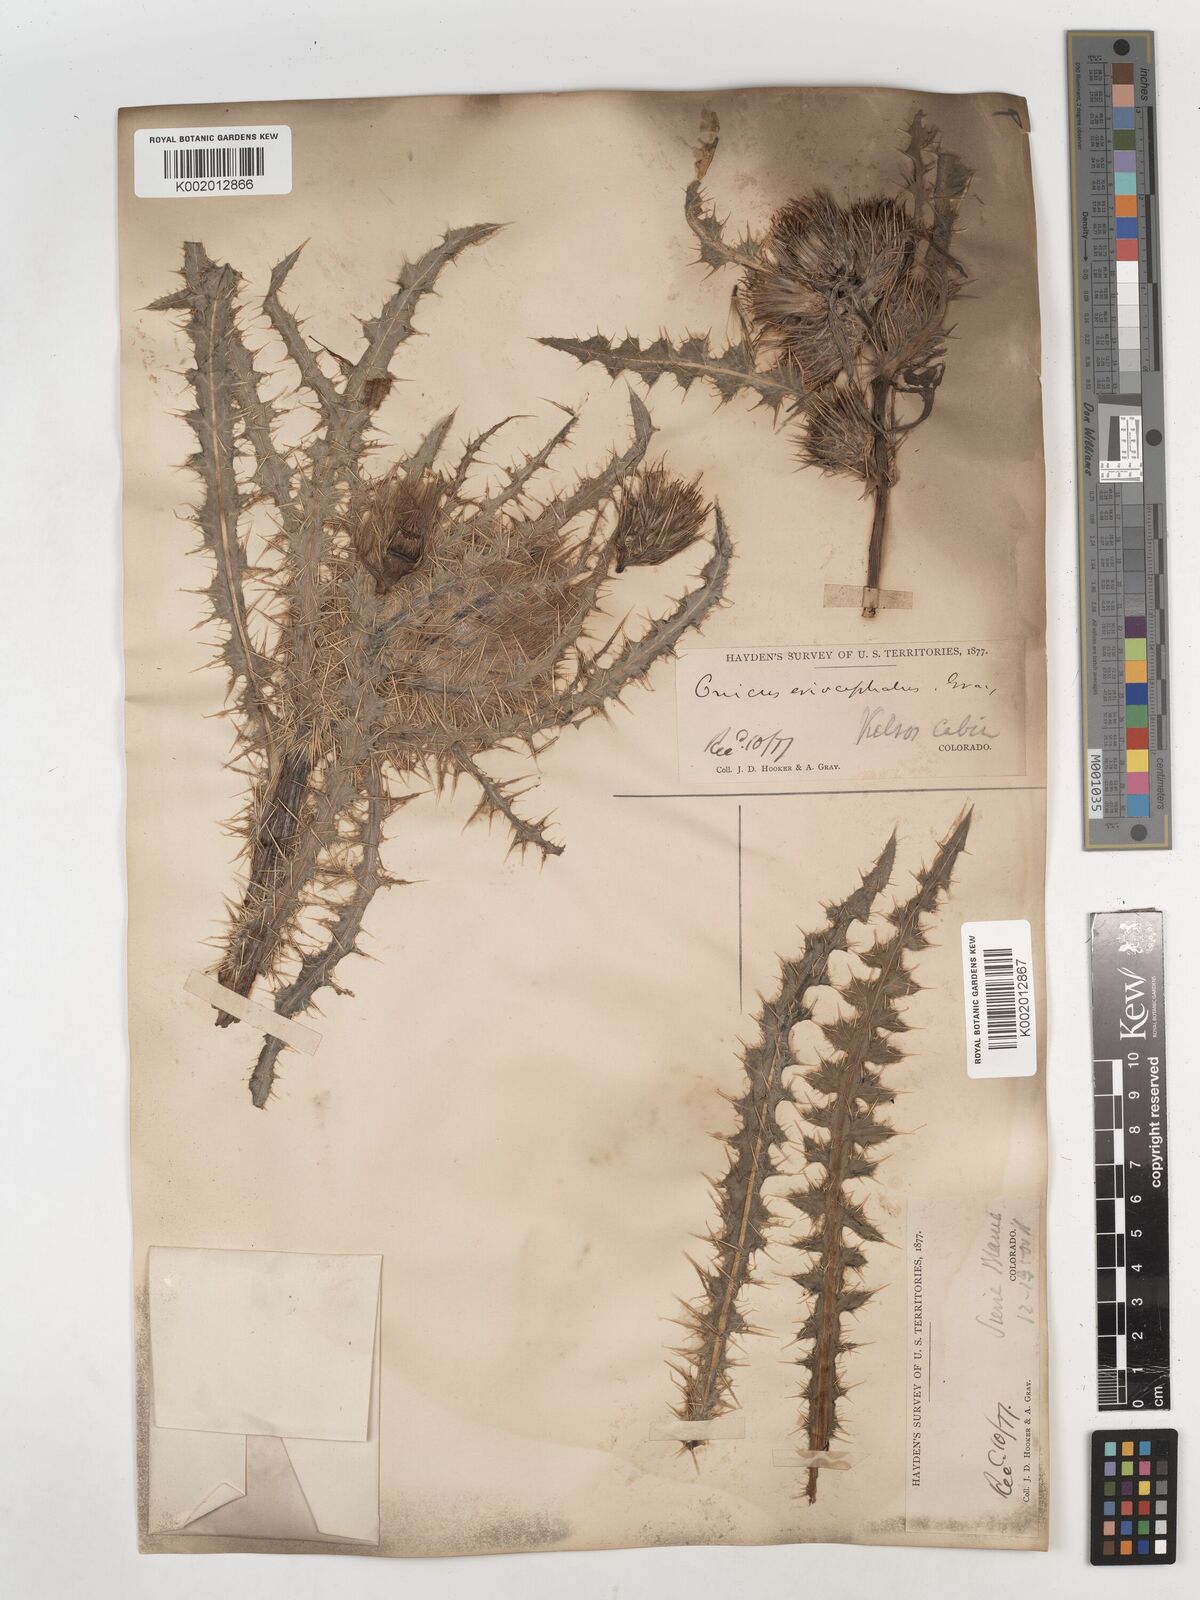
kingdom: Plantae
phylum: Tracheophyta
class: Magnoliopsida
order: Asterales
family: Asteraceae
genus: Cirsium
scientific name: Cirsium scopulorum
